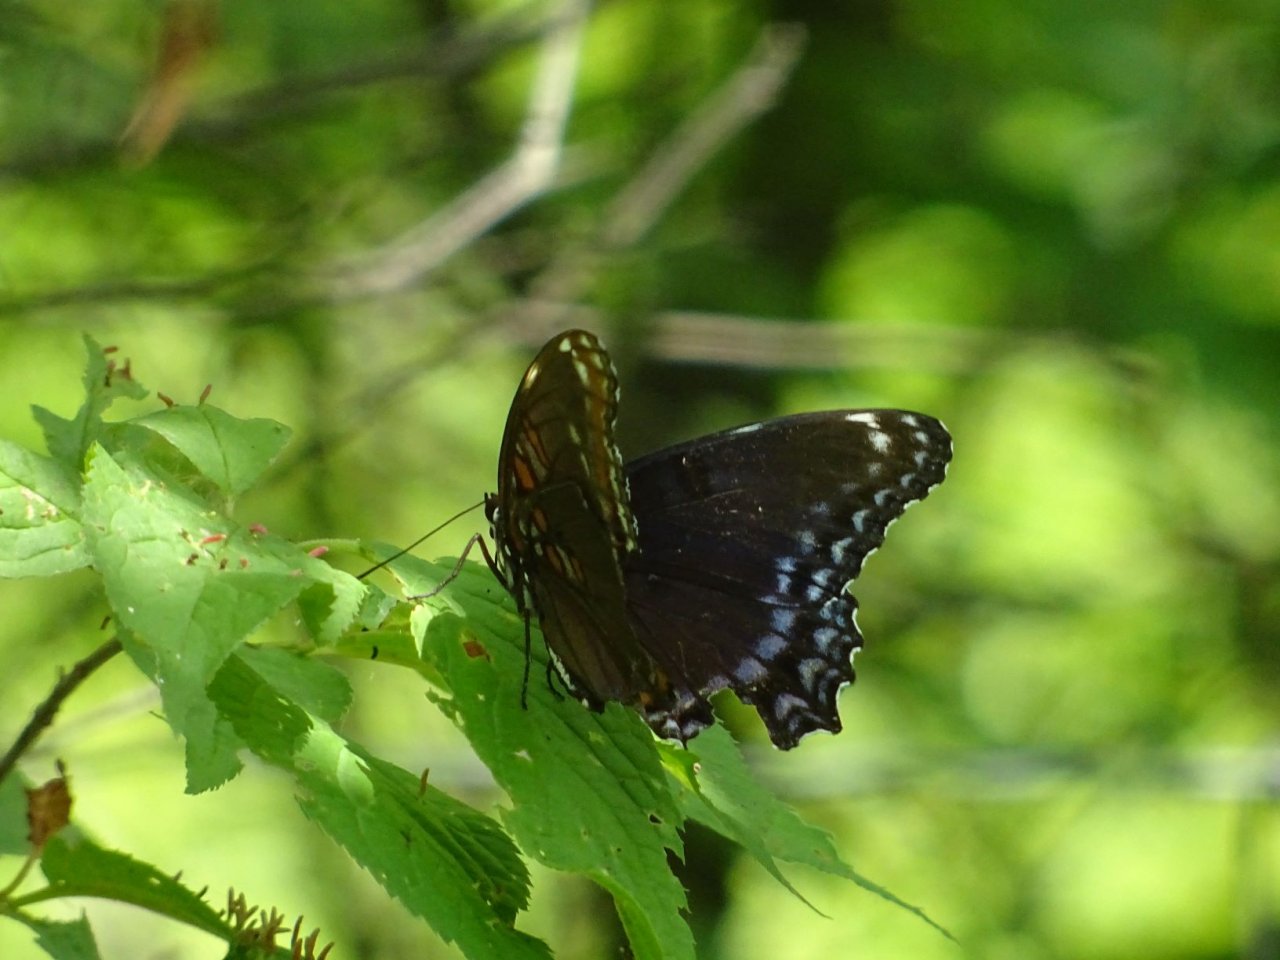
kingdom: Animalia
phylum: Arthropoda
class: Insecta
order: Lepidoptera
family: Nymphalidae
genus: Limenitis
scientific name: Limenitis astyanax
